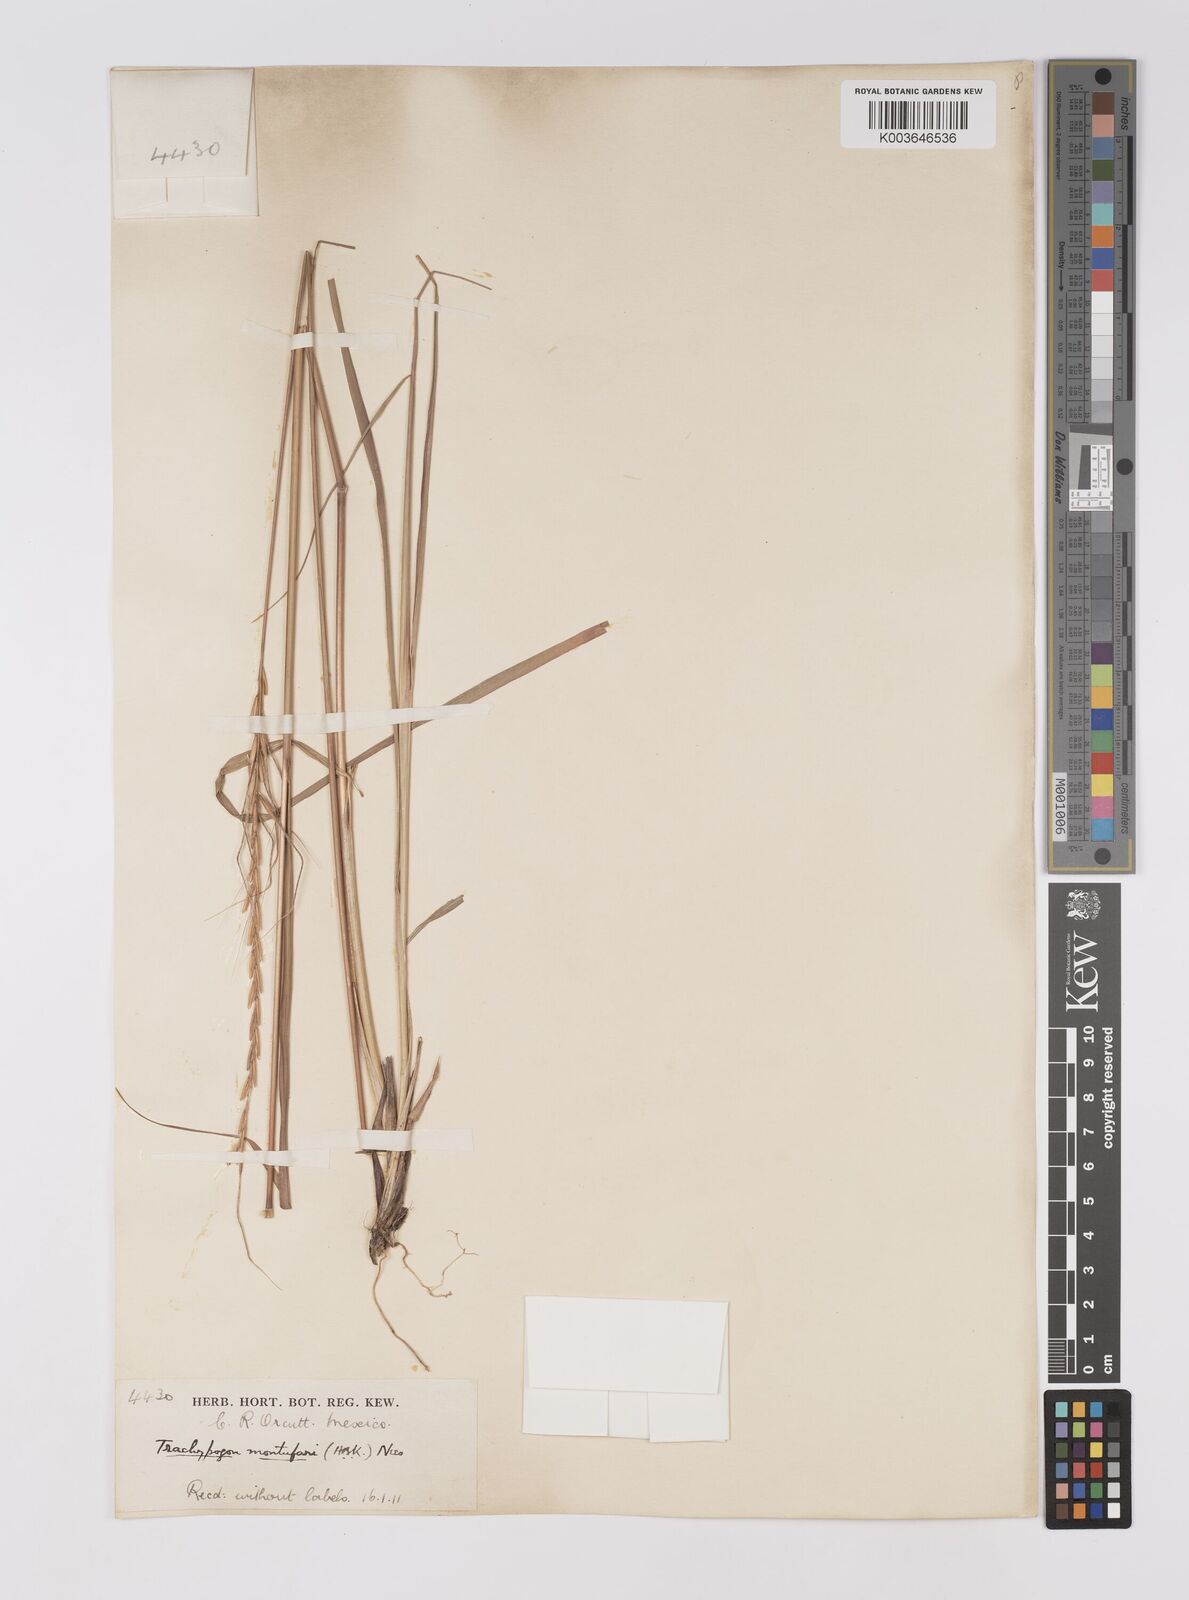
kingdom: Plantae
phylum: Tracheophyta
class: Liliopsida
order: Poales
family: Poaceae
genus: Trachypogon
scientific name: Trachypogon spicatus
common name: Crinkle-awn
